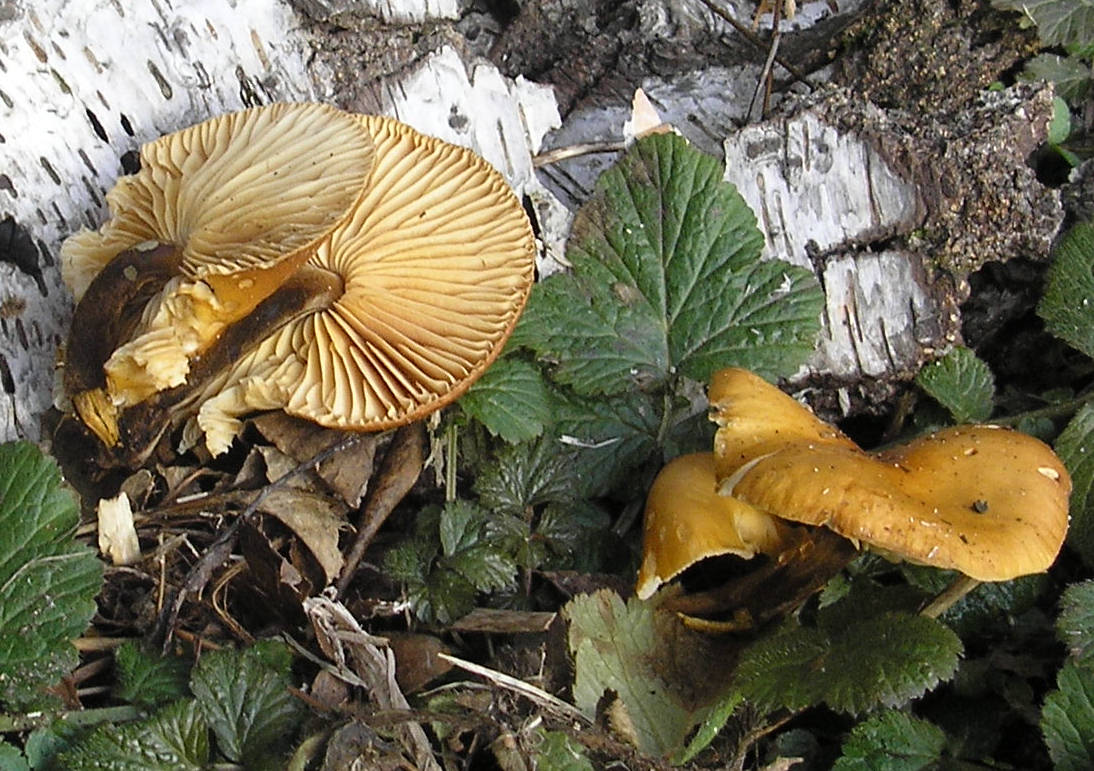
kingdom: Fungi
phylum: Basidiomycota
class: Agaricomycetes
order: Agaricales
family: Physalacriaceae
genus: Flammulina
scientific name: Flammulina velutipes
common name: gul fløjlsfod
